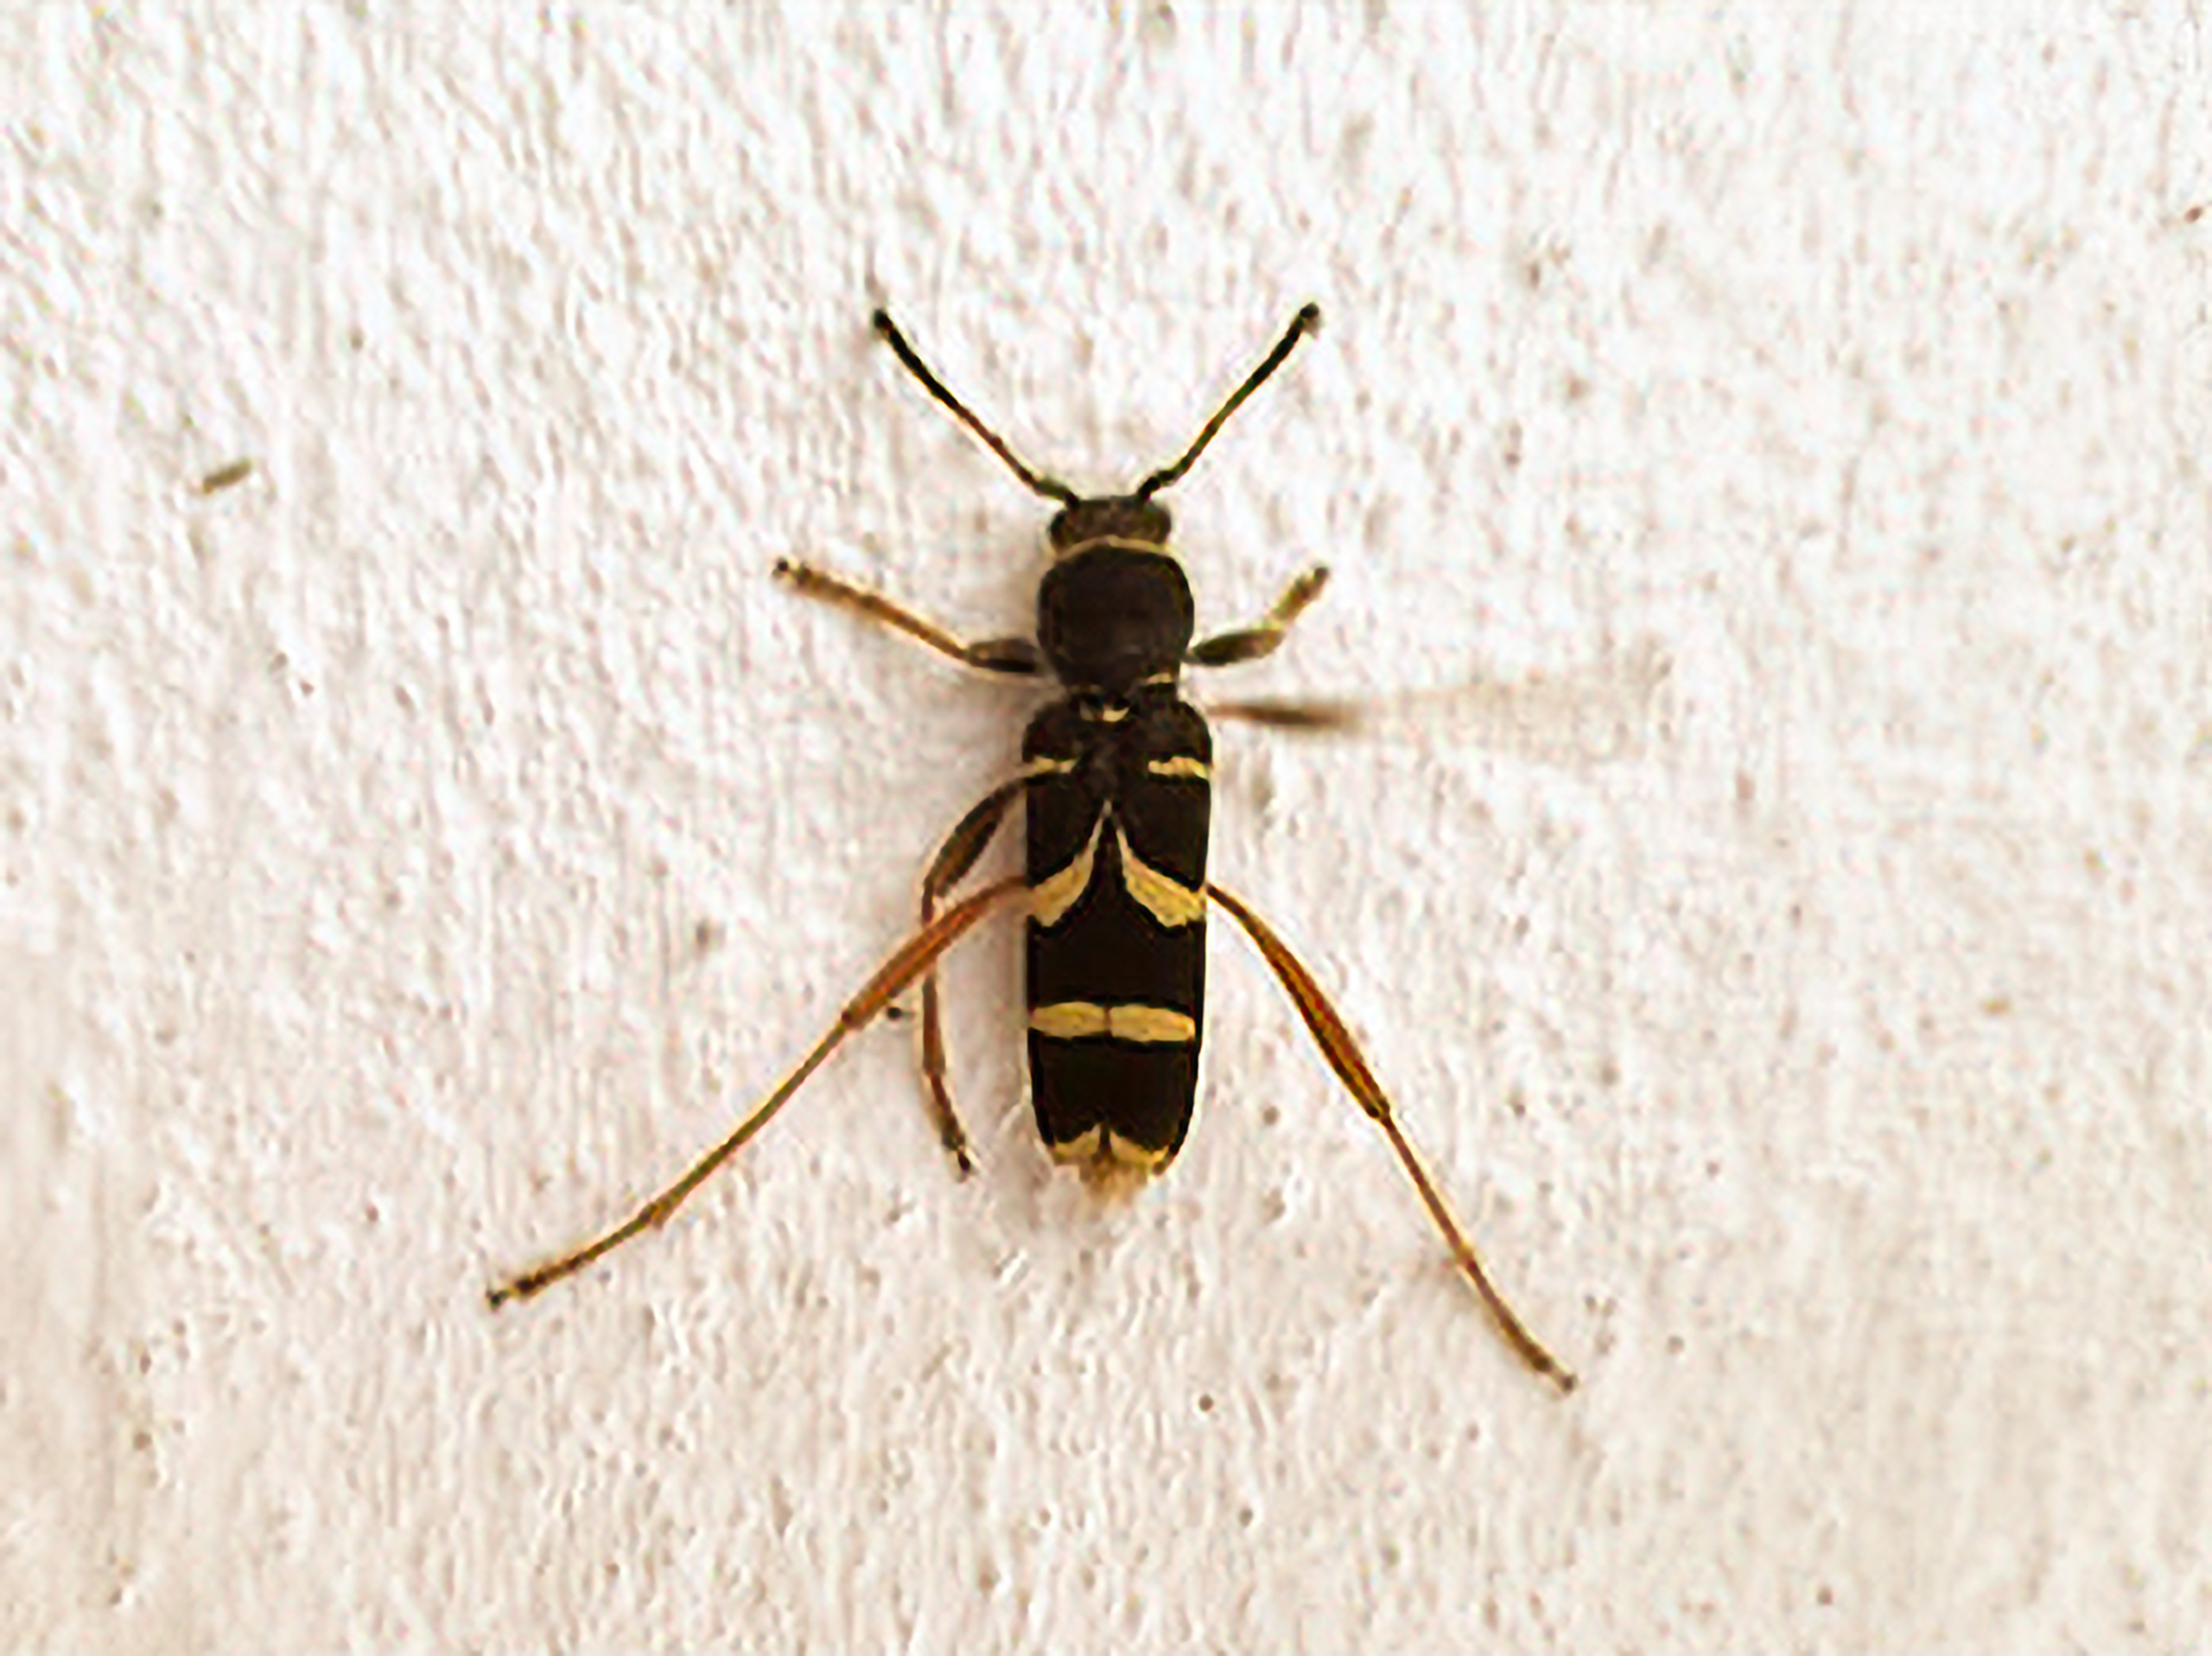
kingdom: Animalia
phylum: Arthropoda
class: Insecta
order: Coleoptera
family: Cerambycidae
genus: Clytus
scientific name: Clytus arietis
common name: Lille hvepsebuk
